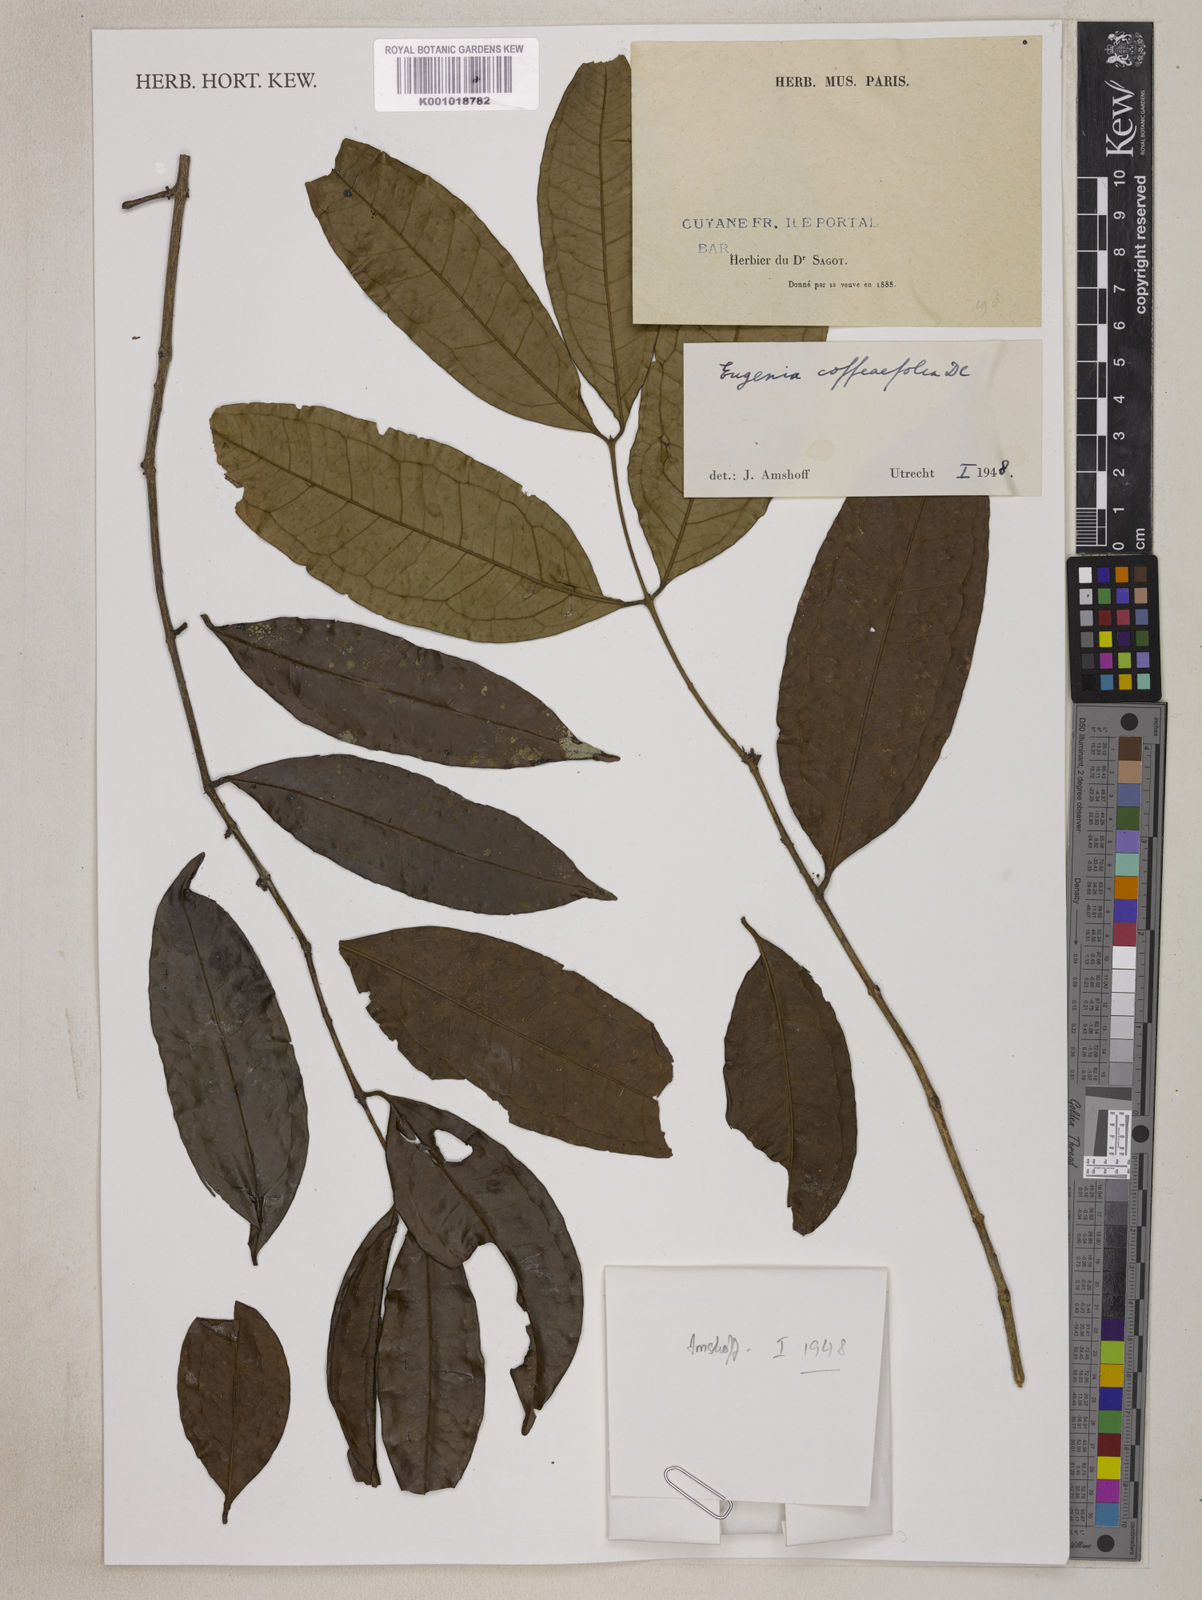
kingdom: Plantae
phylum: Tracheophyta
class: Magnoliopsida
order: Myrtales
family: Myrtaceae
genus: Eugenia
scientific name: Eugenia coffeifolia
